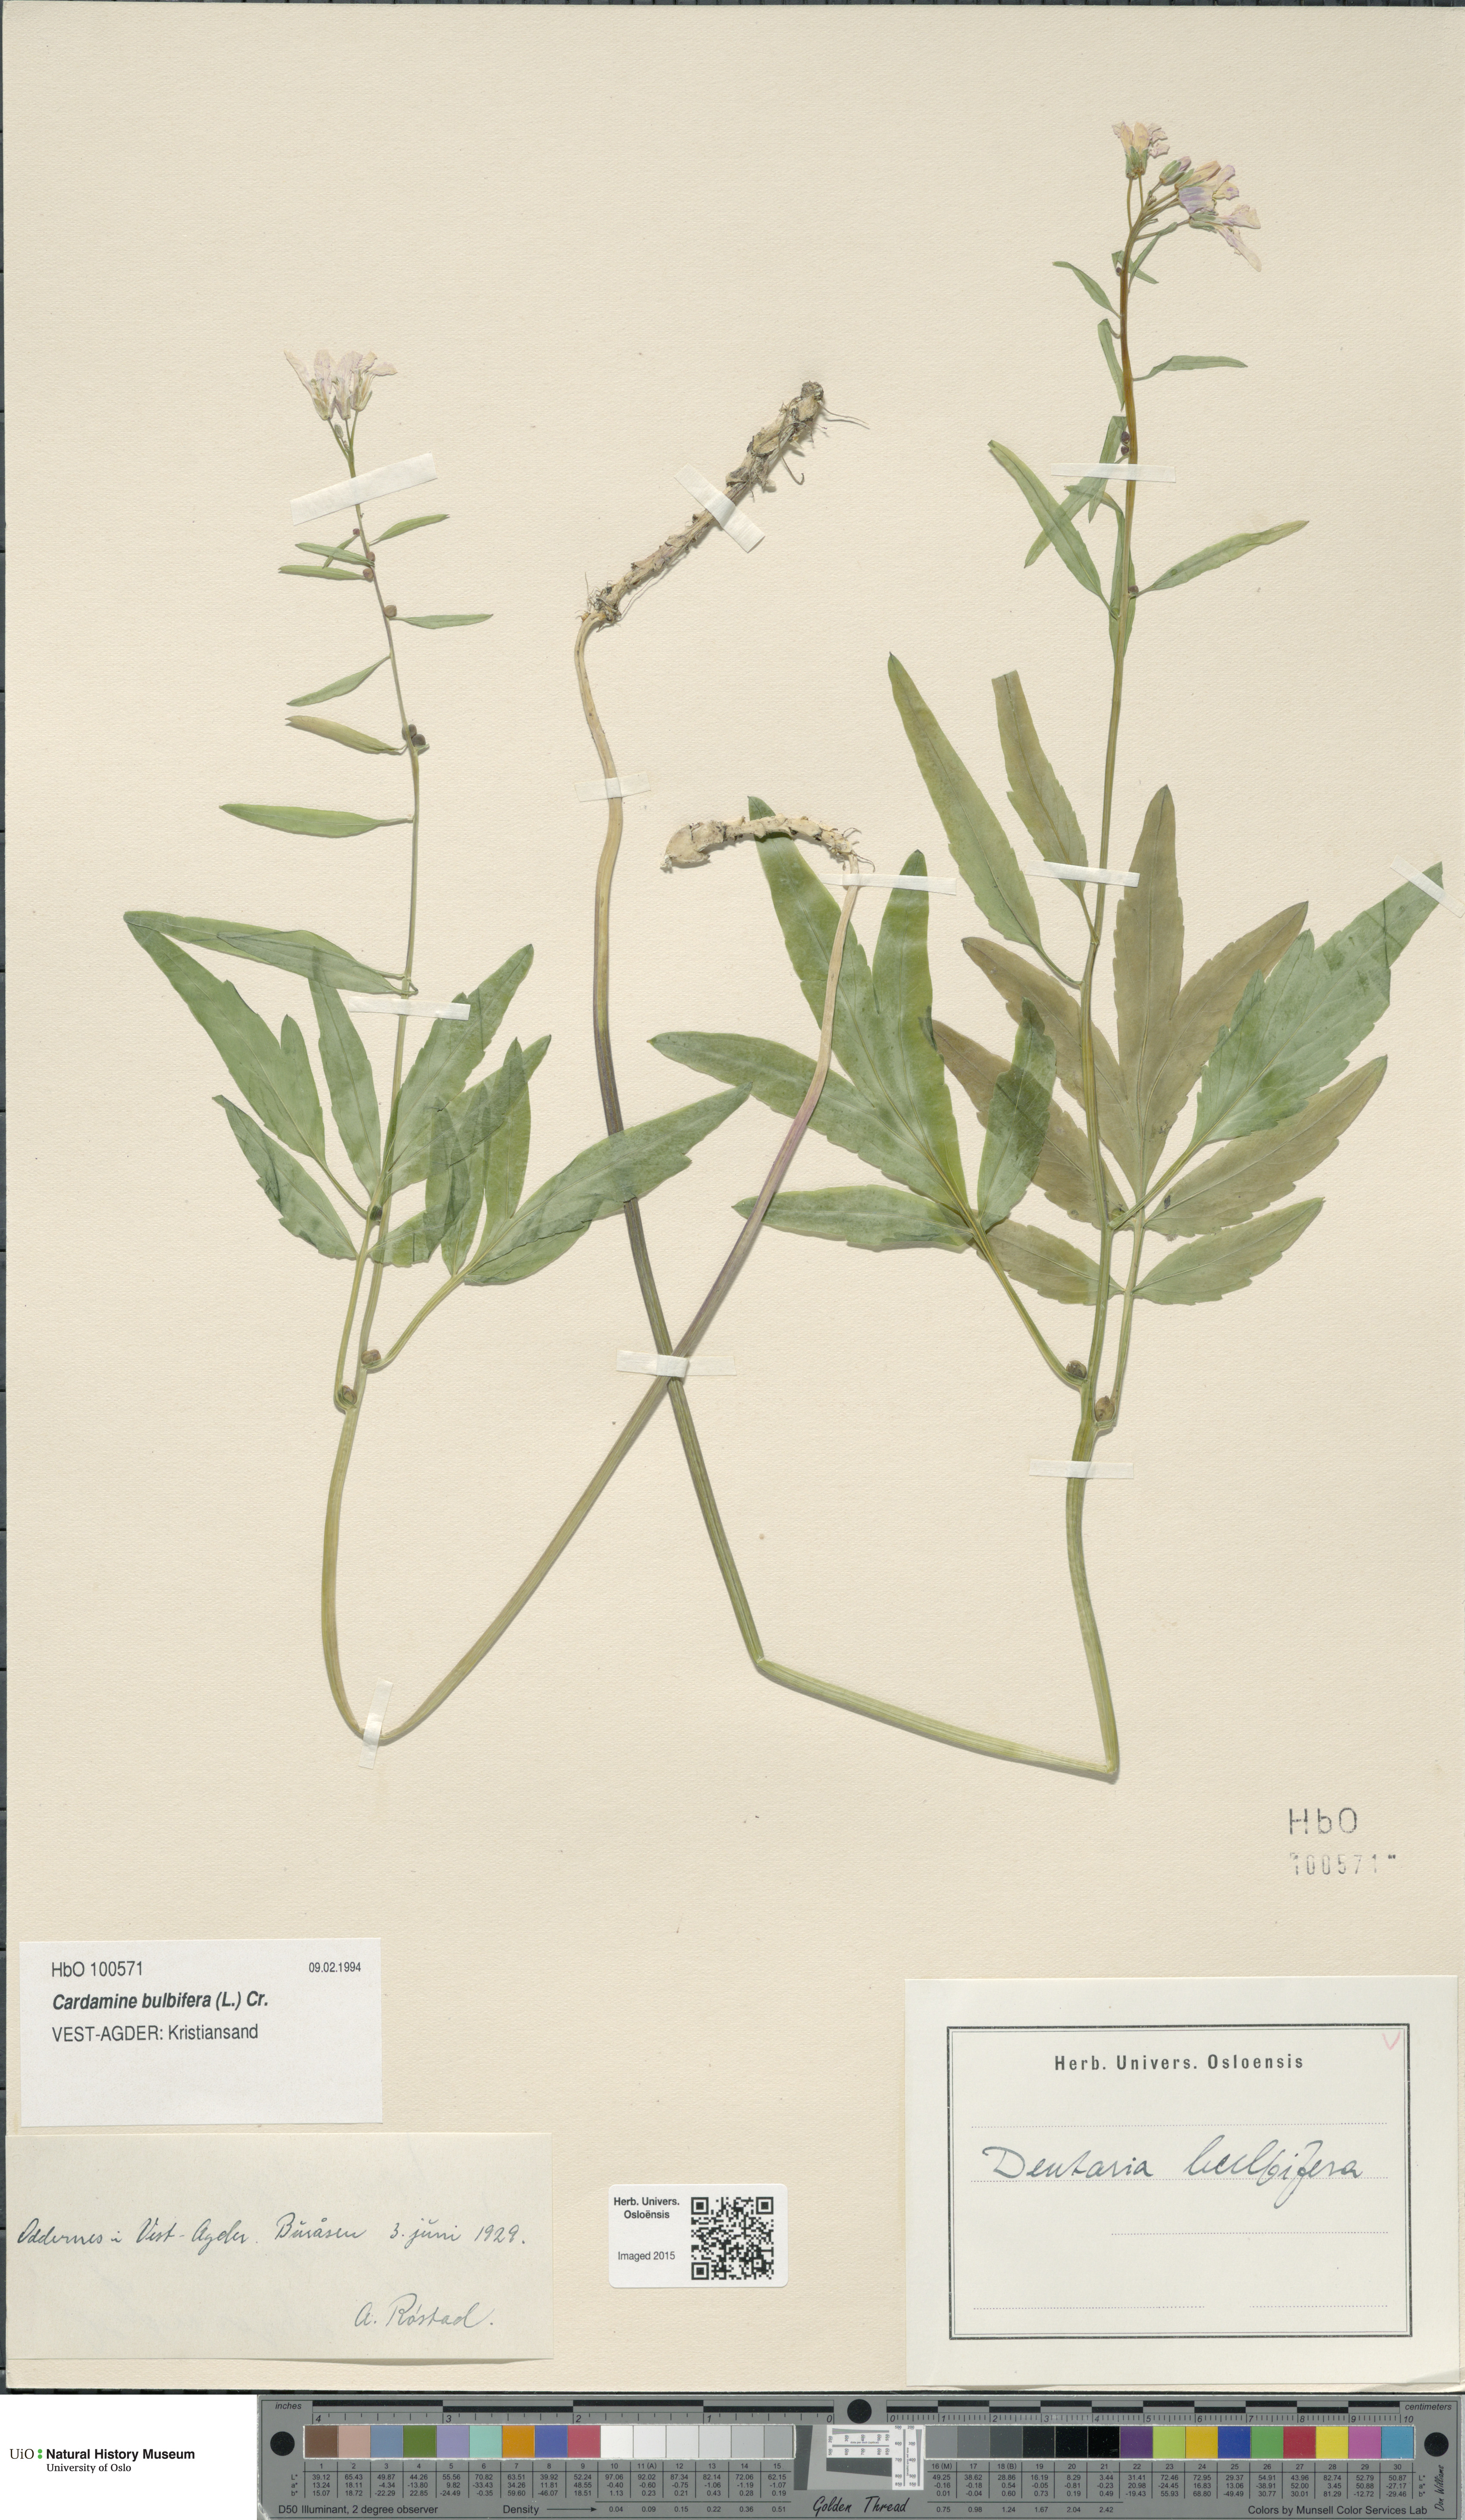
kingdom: Plantae
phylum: Tracheophyta
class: Magnoliopsida
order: Brassicales
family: Brassicaceae
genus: Cardamine
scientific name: Cardamine bulbifera
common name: Coralroot bittercress
